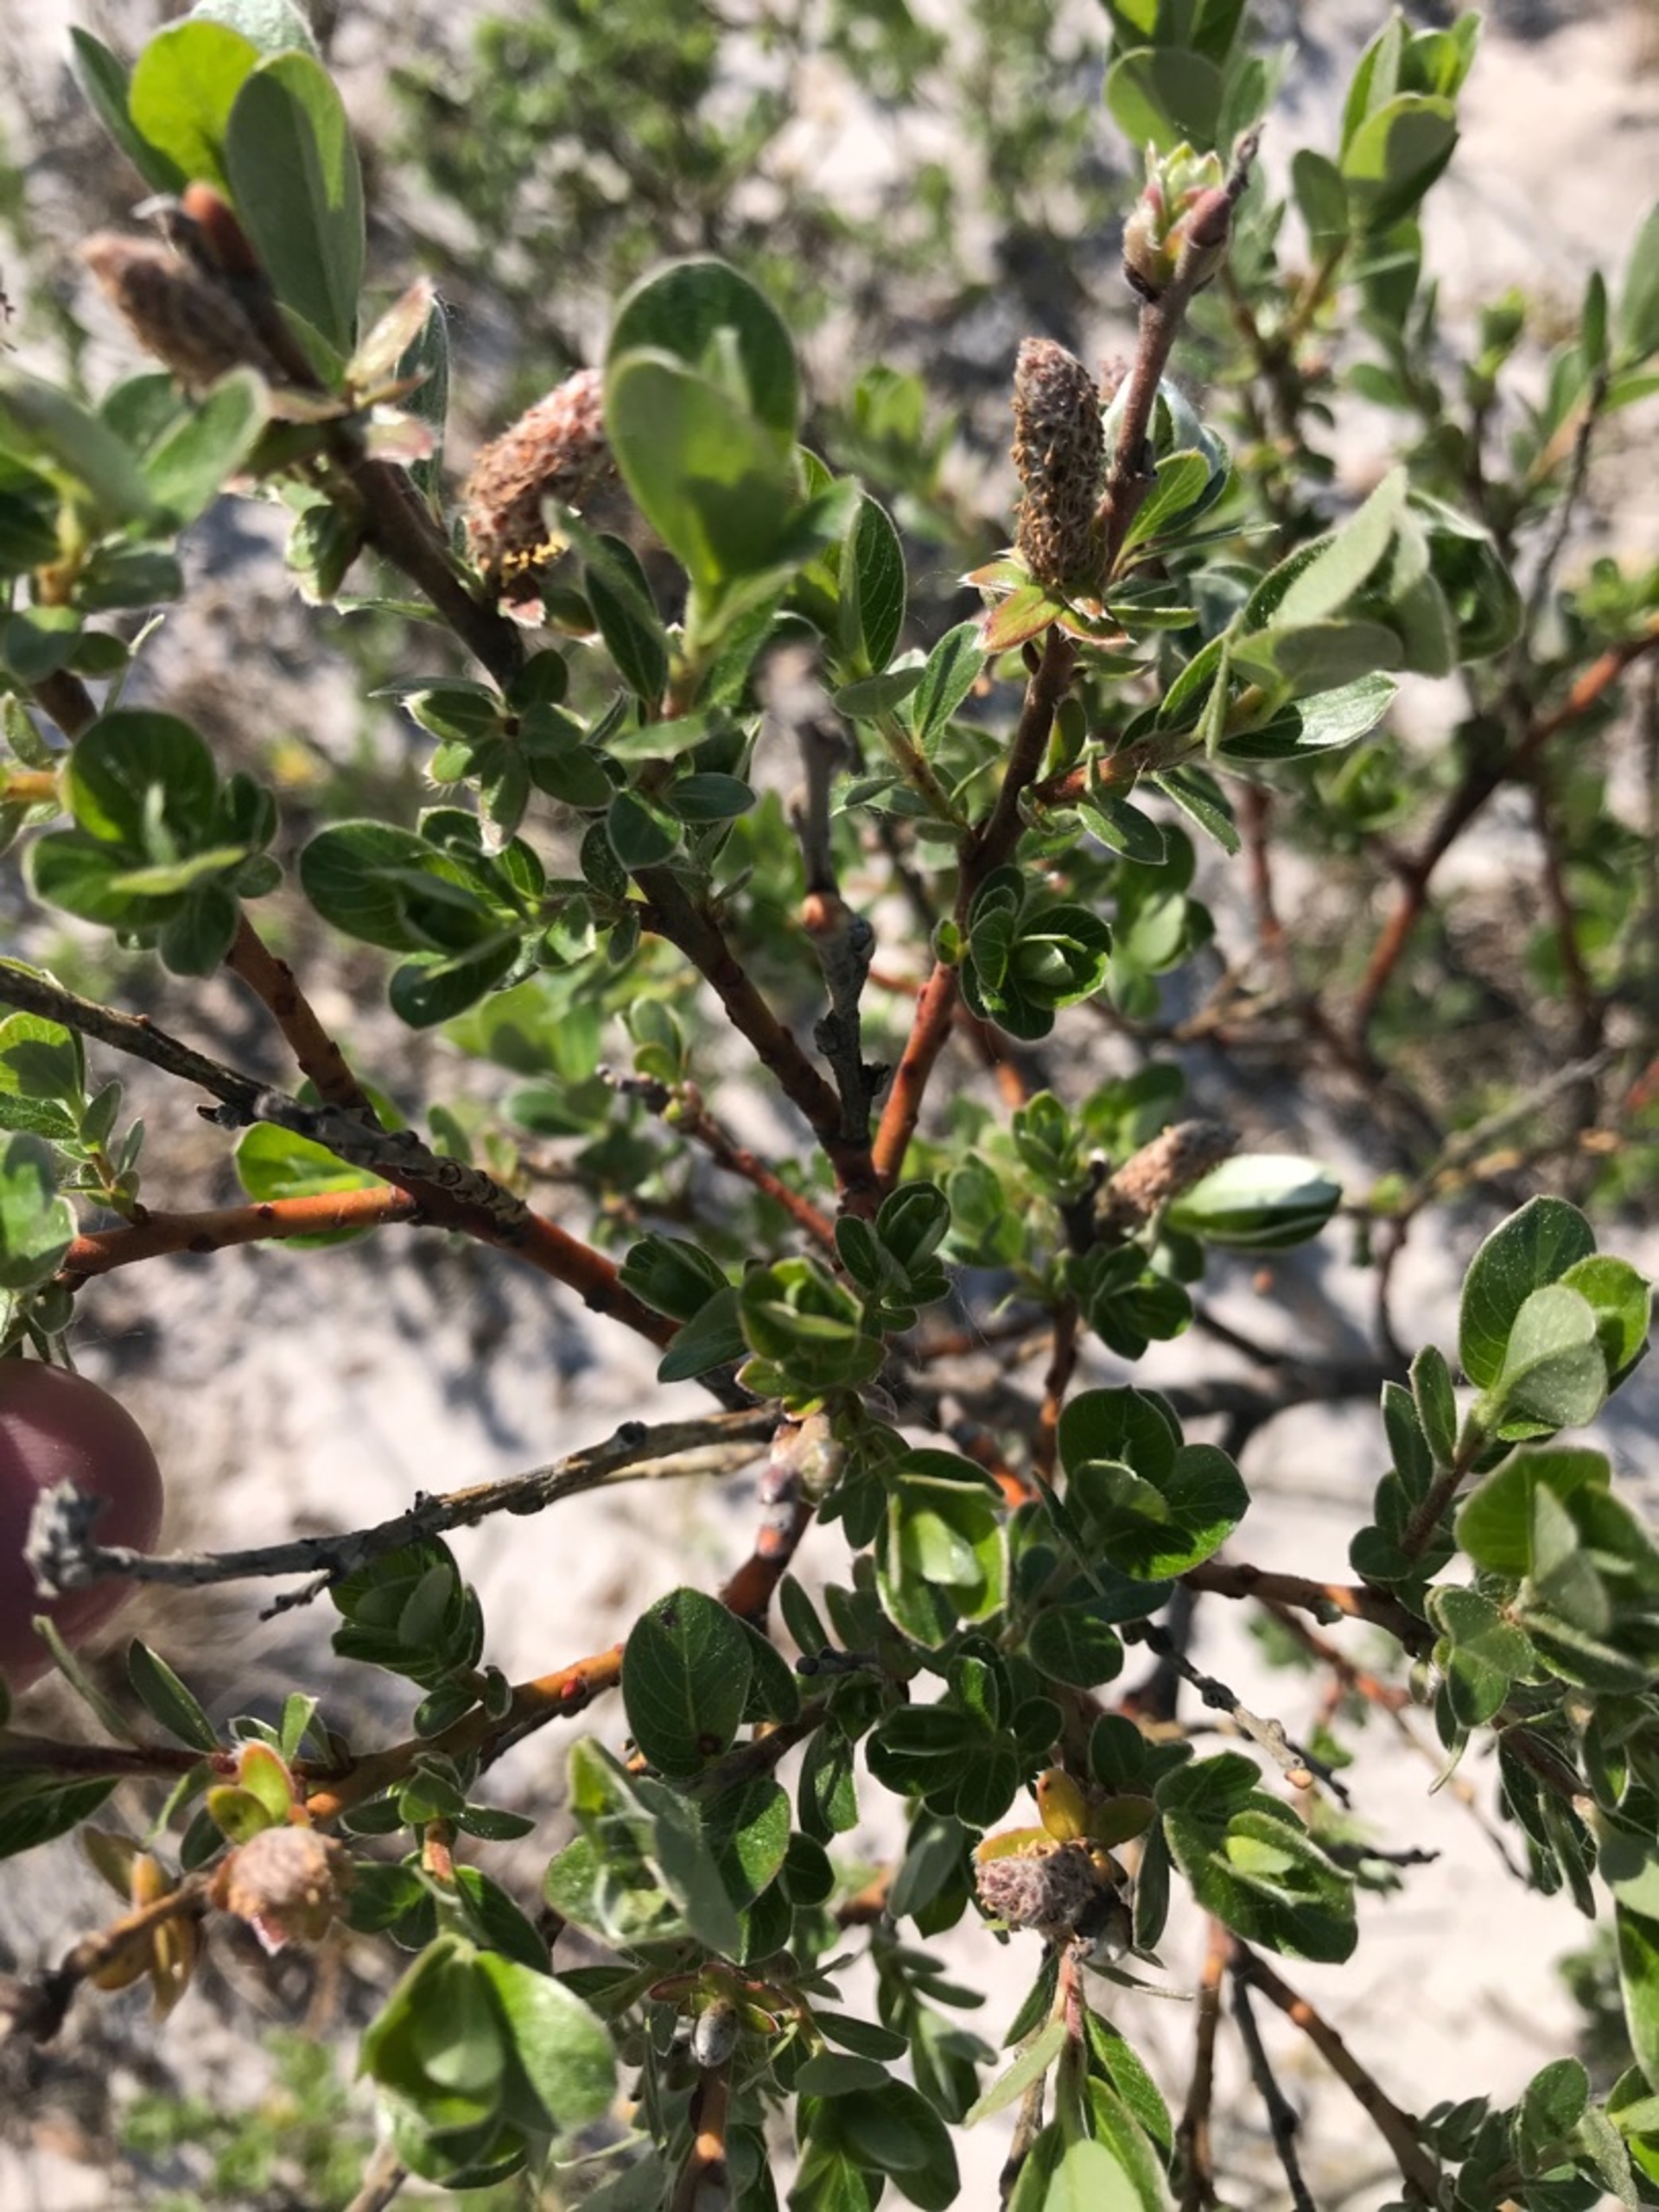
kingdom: Plantae
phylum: Tracheophyta
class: Magnoliopsida
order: Malpighiales
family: Salicaceae
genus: Salix
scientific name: Salix repens
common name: Krybende pil
